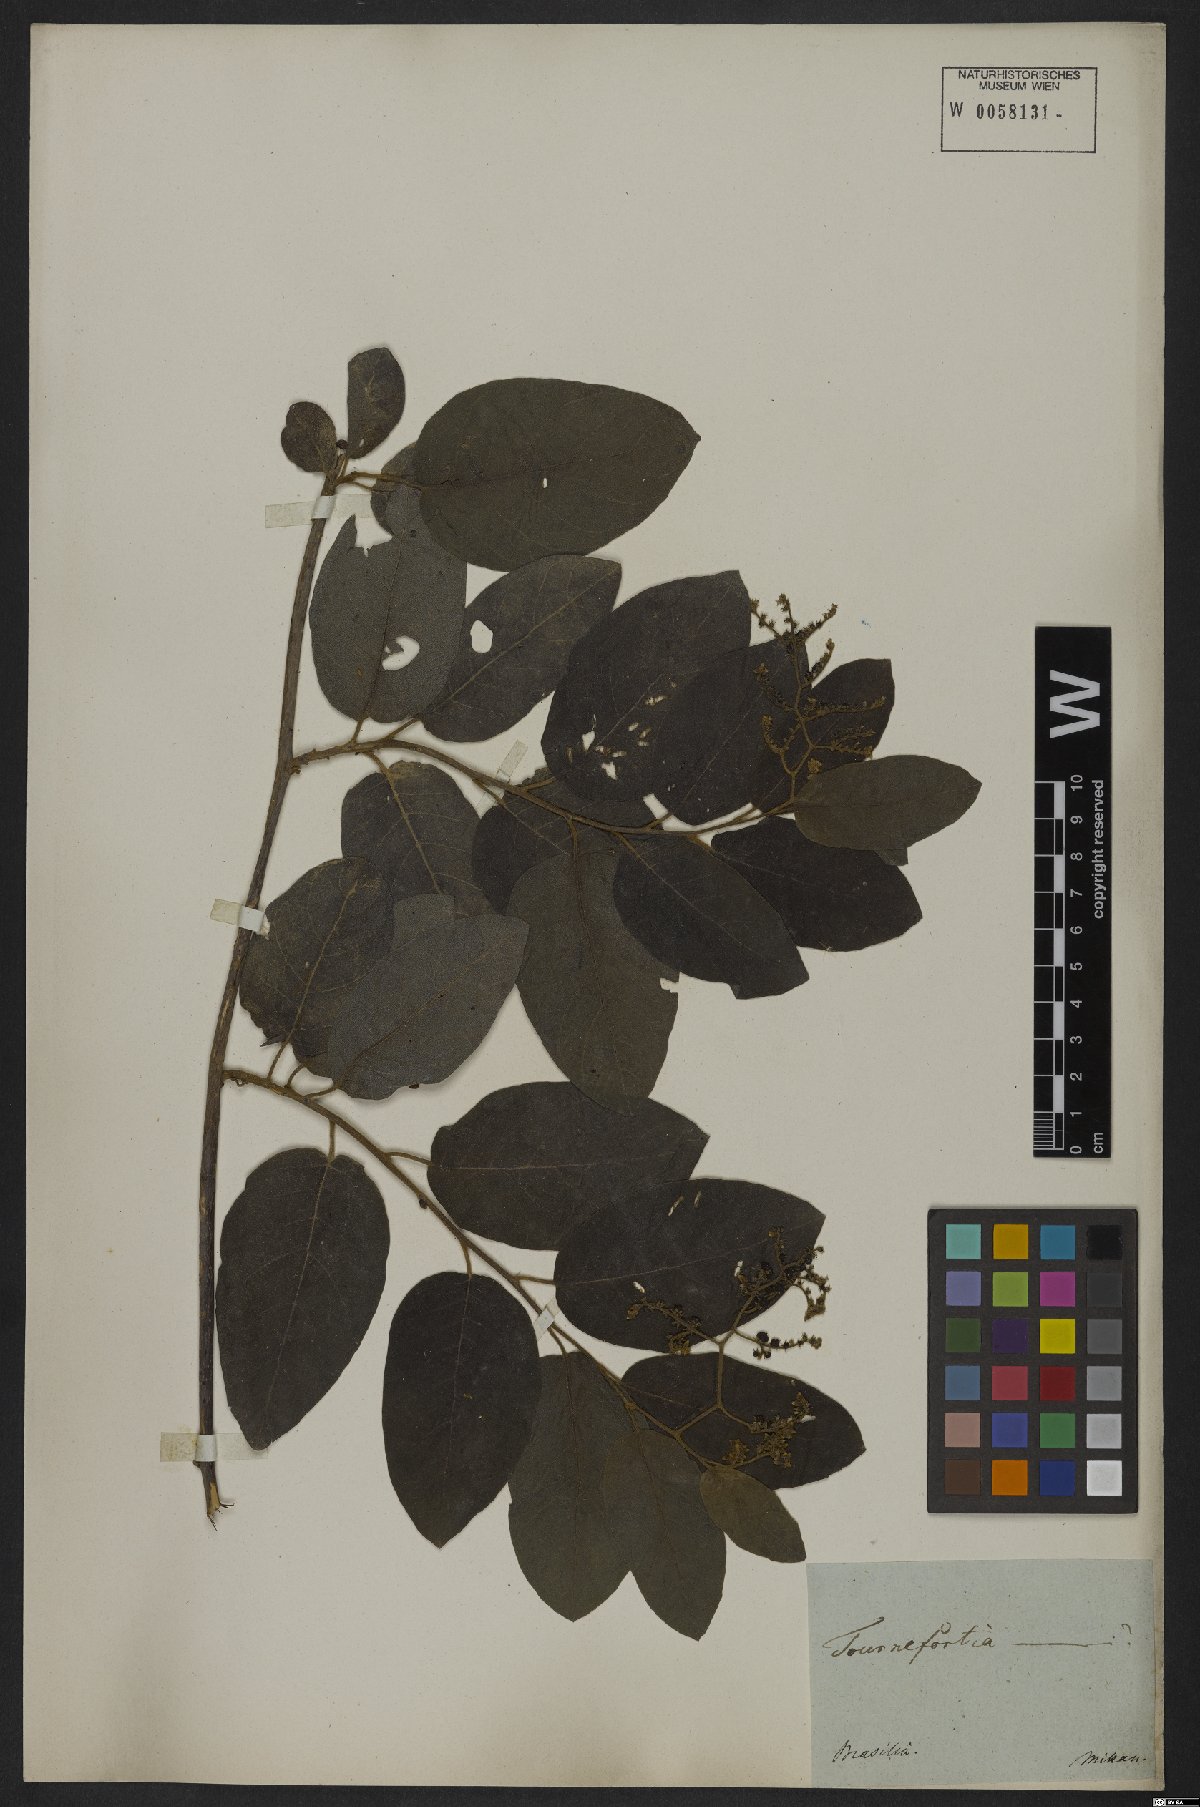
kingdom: Plantae
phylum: Tracheophyta
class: Magnoliopsida
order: Boraginales
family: Heliotropiaceae
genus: Tournefortia
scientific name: Tournefortia
